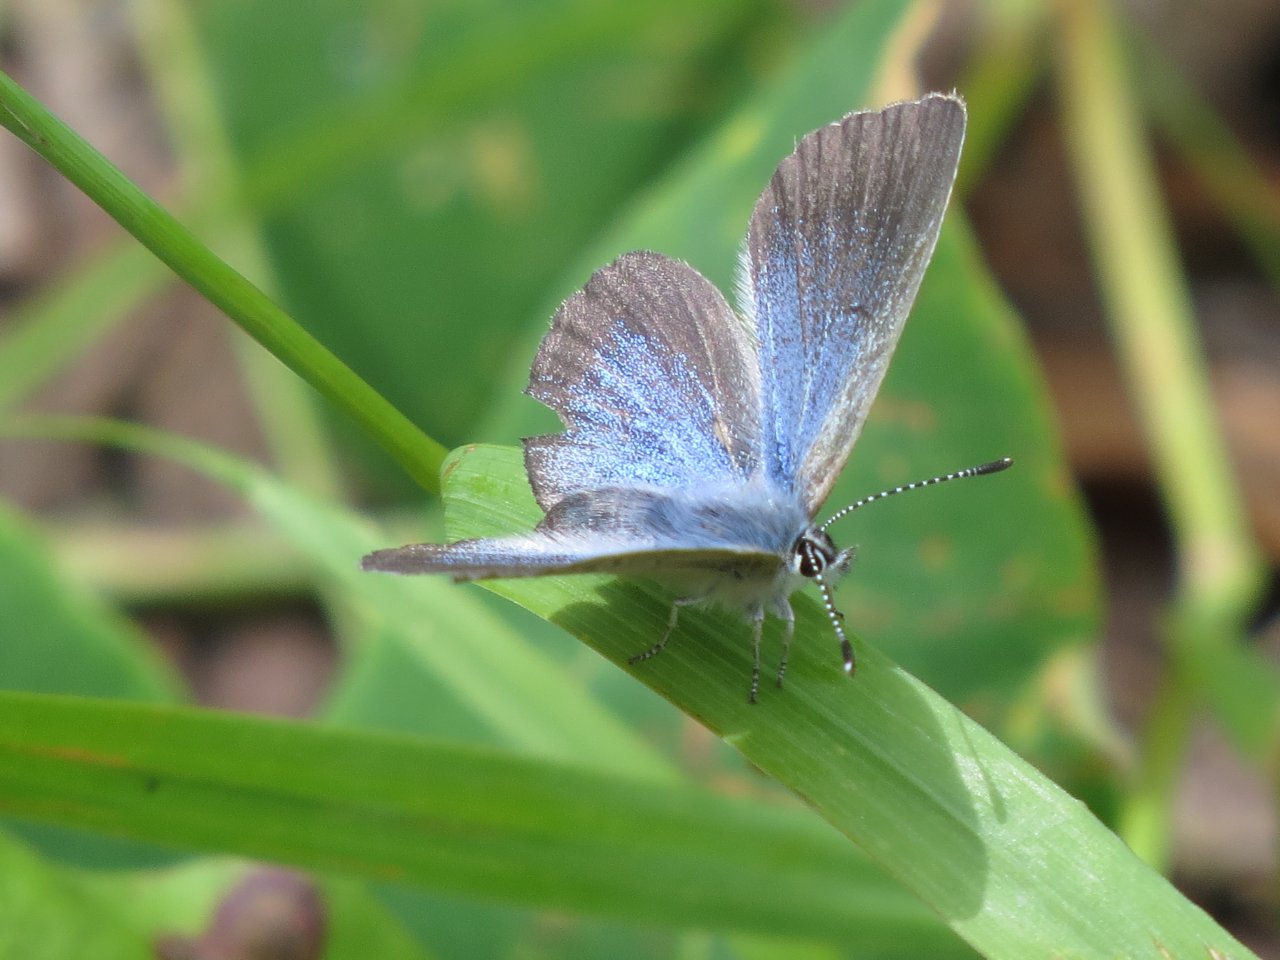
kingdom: Animalia
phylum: Arthropoda
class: Insecta
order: Lepidoptera
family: Lycaenidae
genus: Agriades
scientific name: Agriades glandon
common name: Arctic Blue
